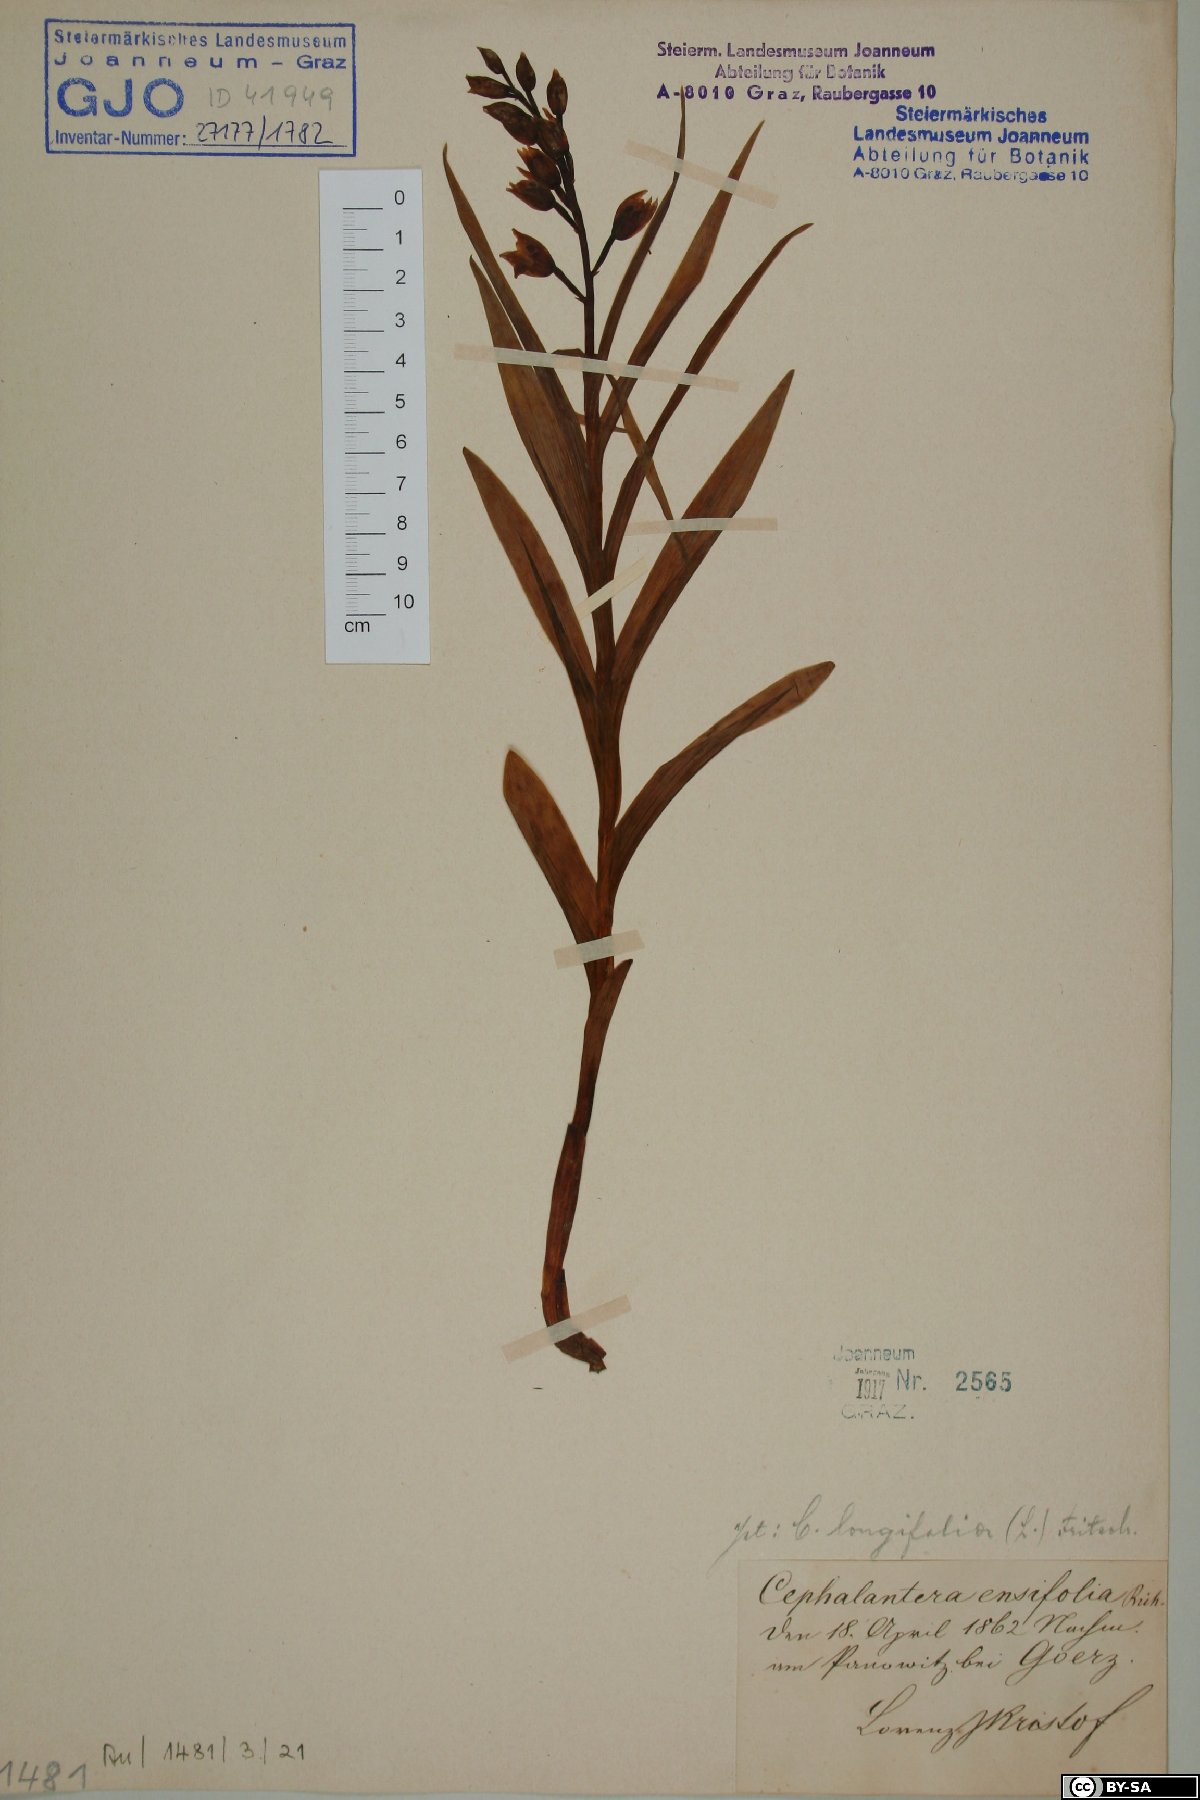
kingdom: Plantae
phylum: Tracheophyta
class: Liliopsida
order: Asparagales
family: Orchidaceae
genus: Cephalanthera
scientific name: Cephalanthera longifolia
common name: Narrow-leaved helleborine
